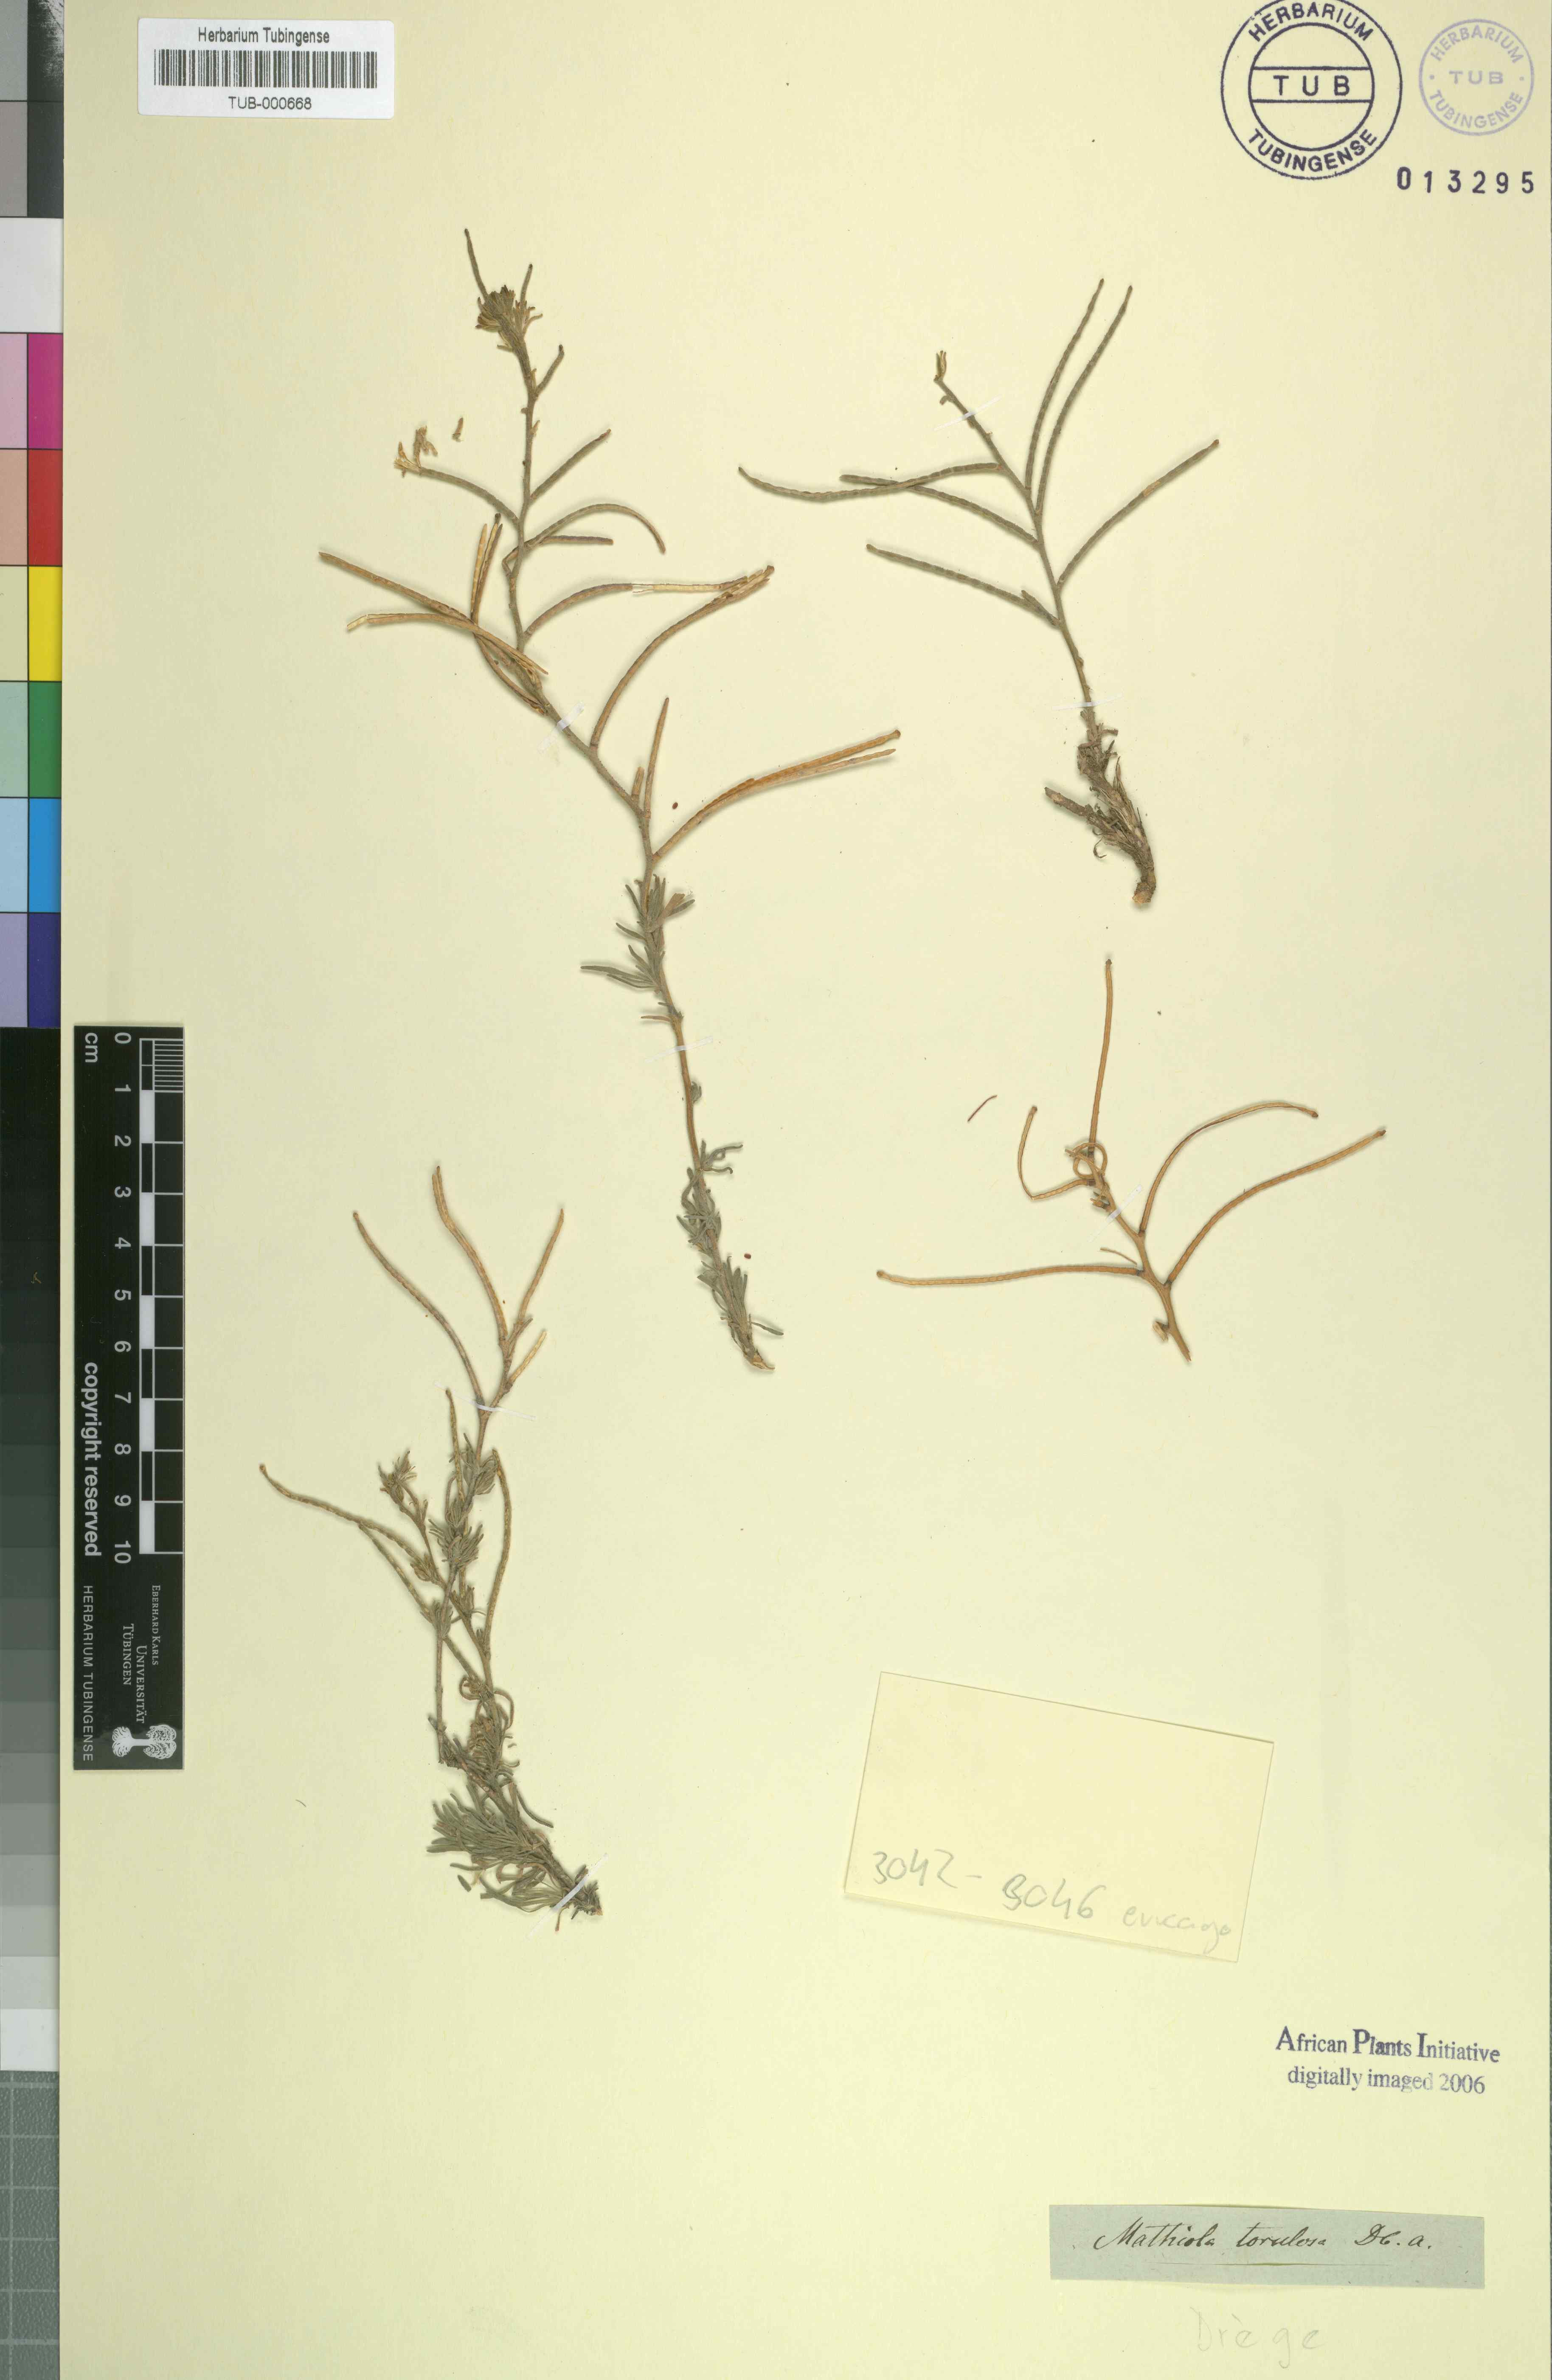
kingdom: Plantae
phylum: Tracheophyta
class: Magnoliopsida
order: Brassicales
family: Brassicaceae
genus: Matthiola
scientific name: Matthiola torulosa
